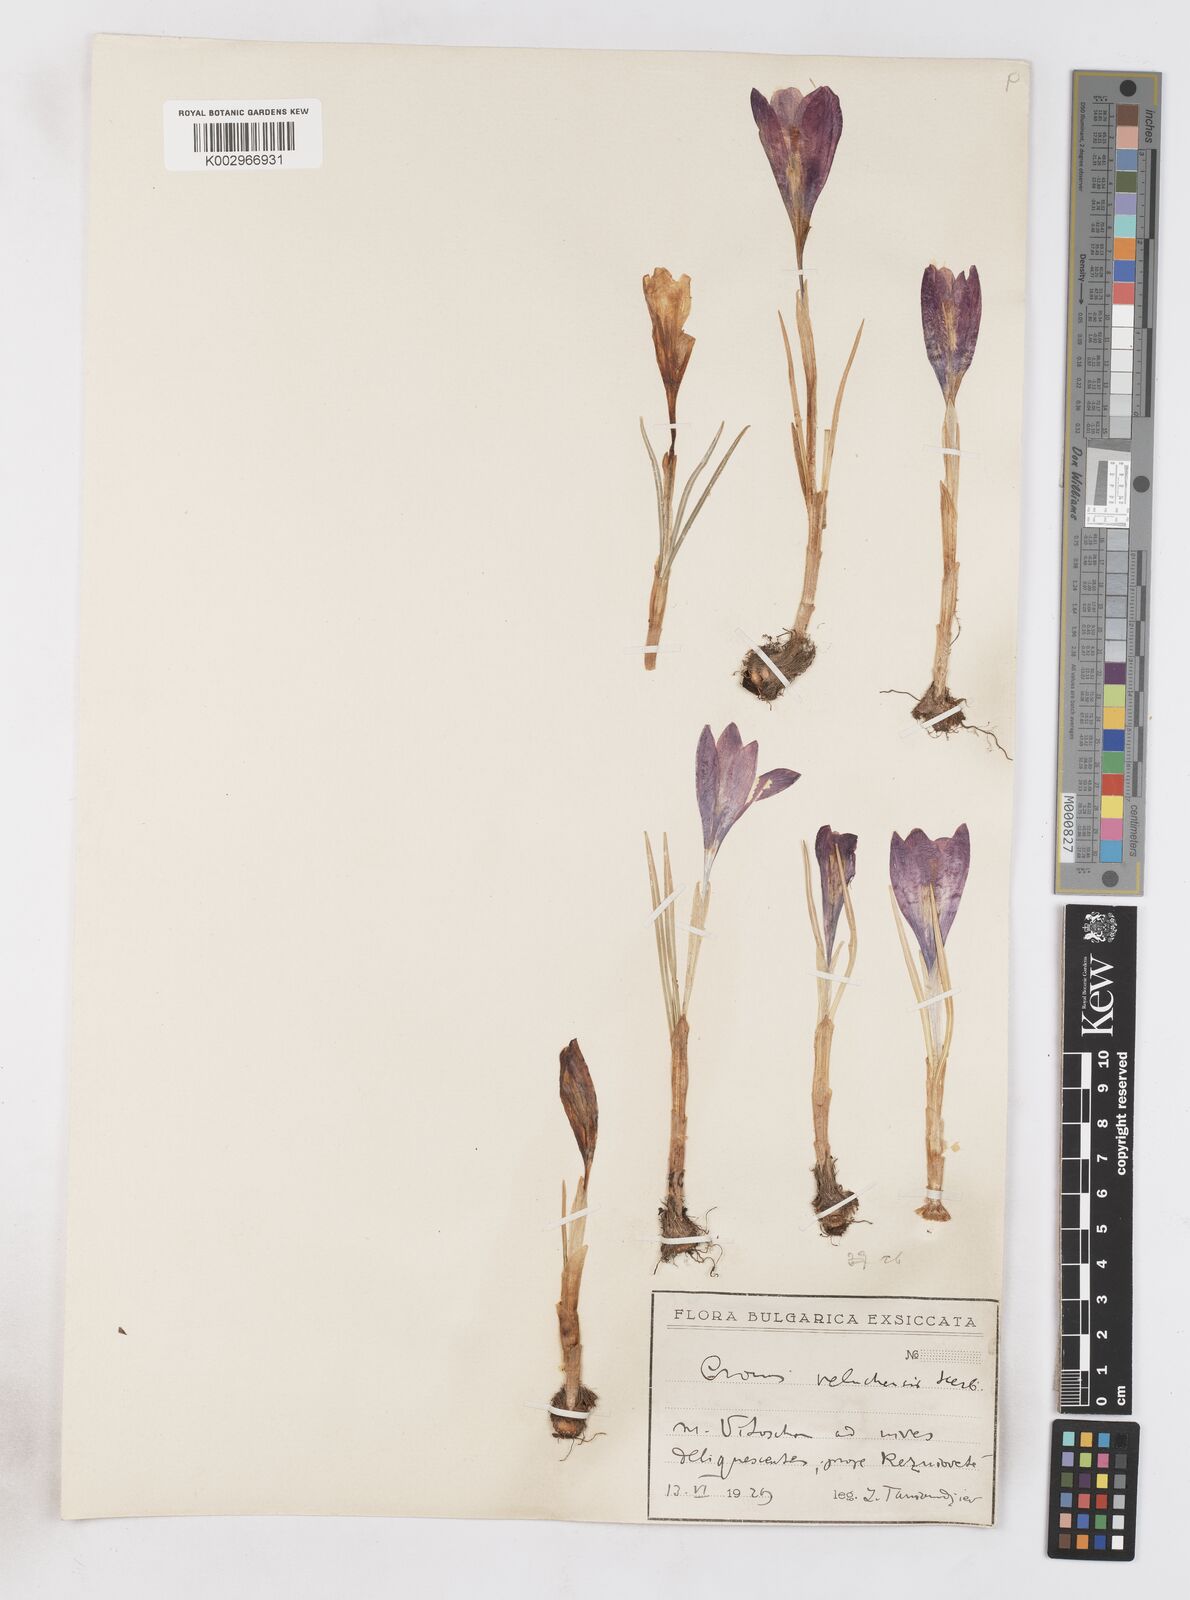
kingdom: Plantae
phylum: Tracheophyta
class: Liliopsida
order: Asparagales
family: Iridaceae
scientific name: Iridaceae
